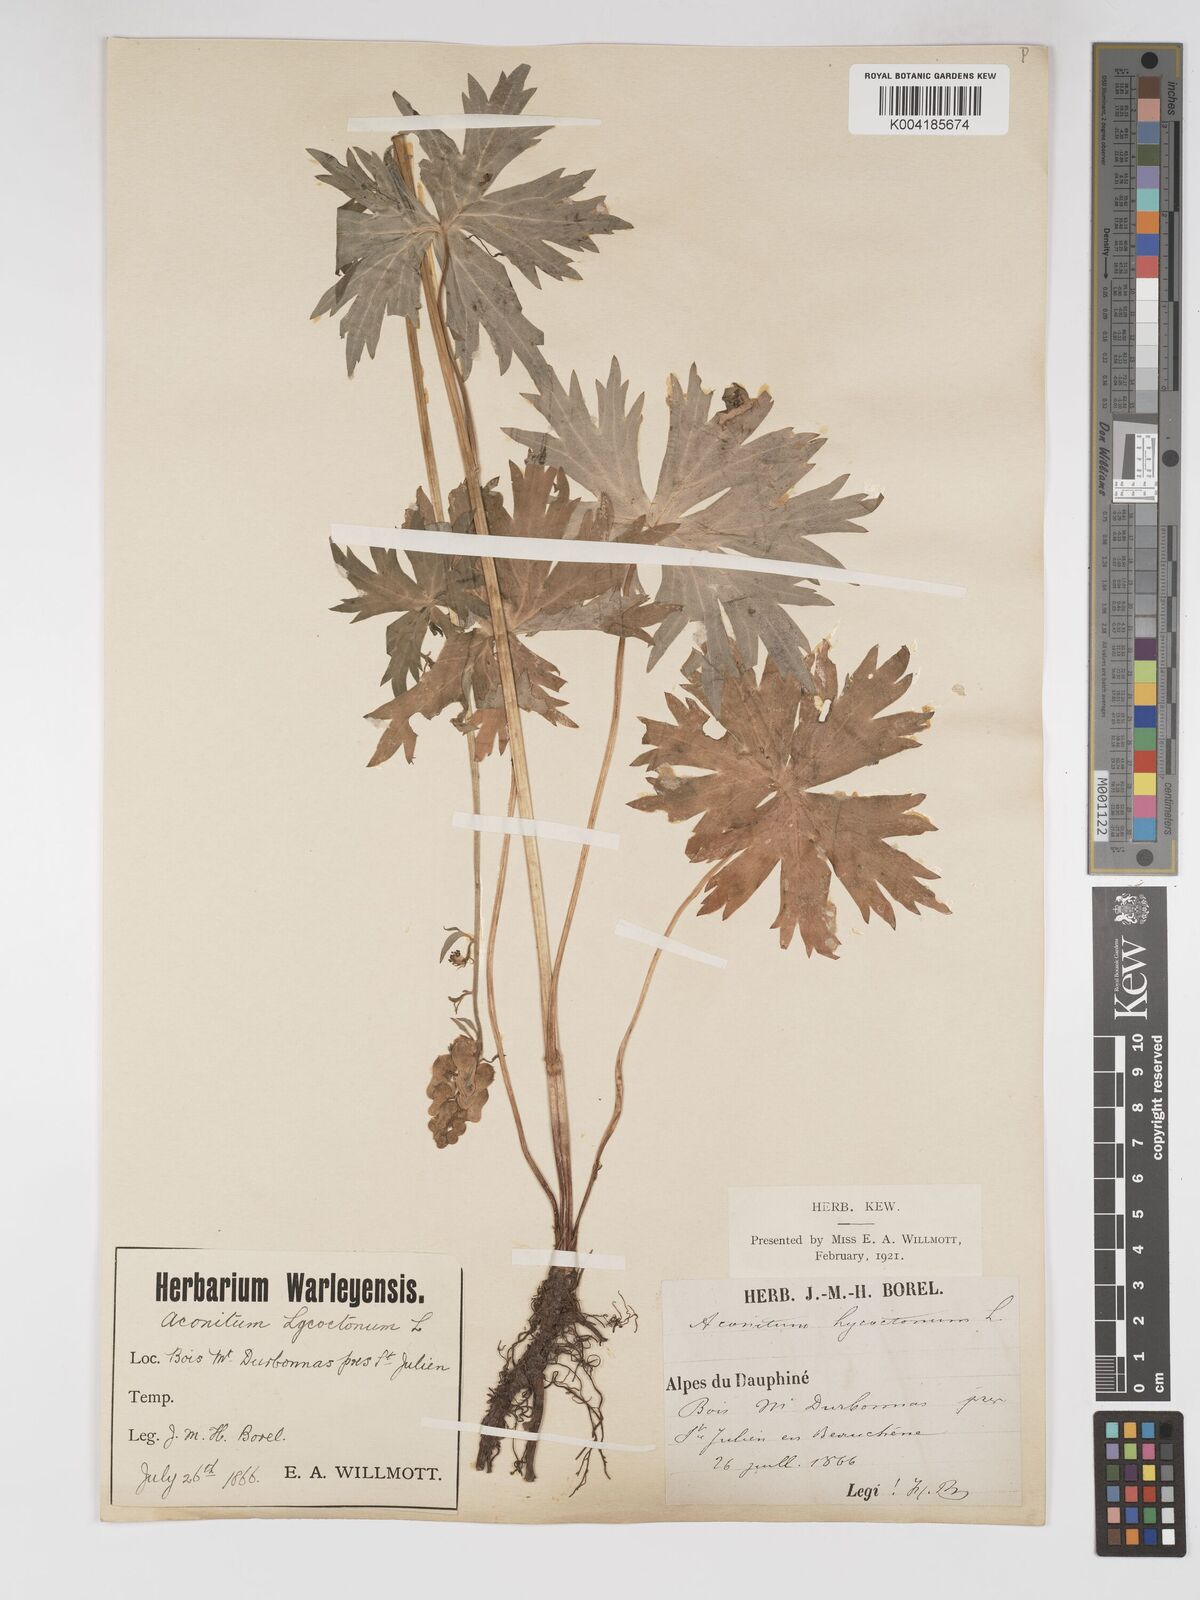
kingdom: Plantae
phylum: Tracheophyta
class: Magnoliopsida
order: Ranunculales
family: Ranunculaceae
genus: Aconitum
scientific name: Aconitum lycoctonum
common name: Wolf's-bane
